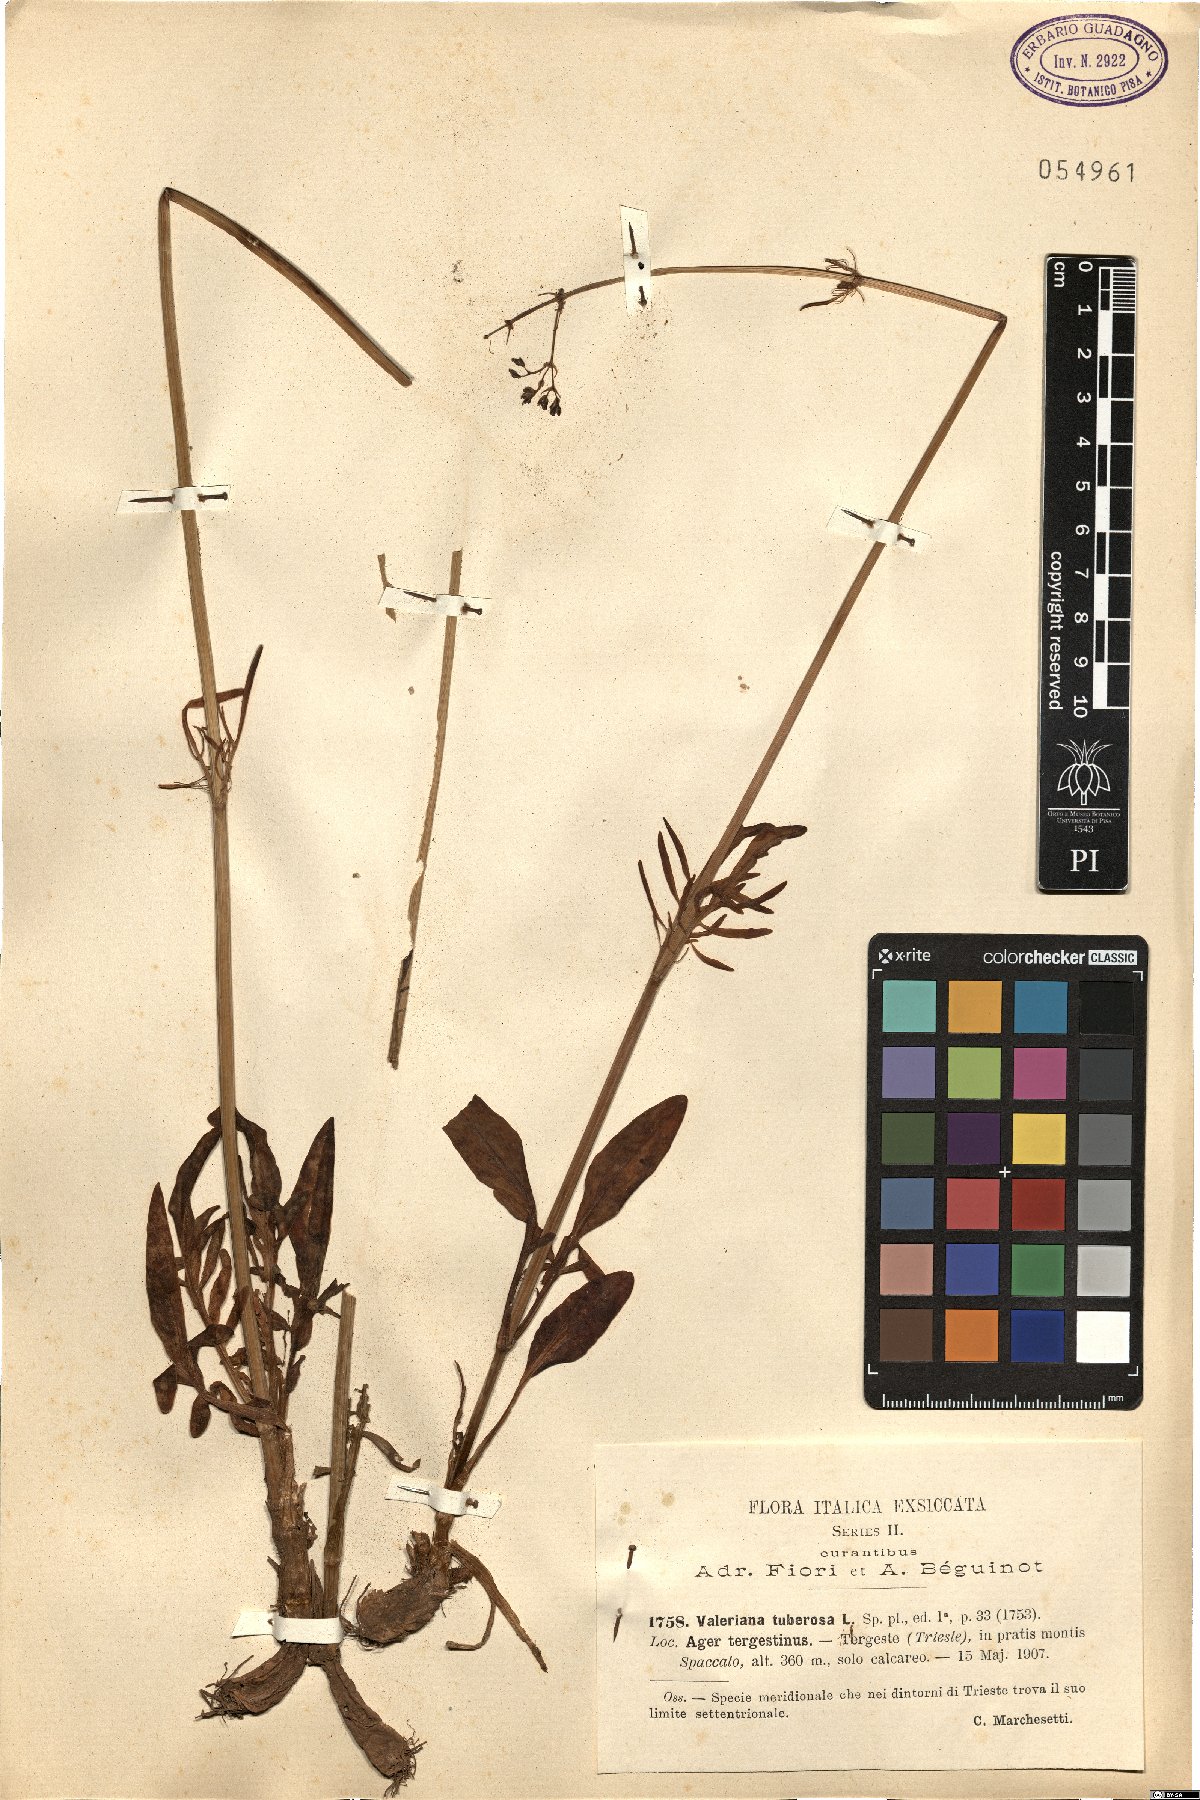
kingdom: Plantae
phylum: Tracheophyta
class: Magnoliopsida
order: Dipsacales
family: Caprifoliaceae
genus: Valeriana
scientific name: Valeriana tuberosa
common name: Tuberous valerian
